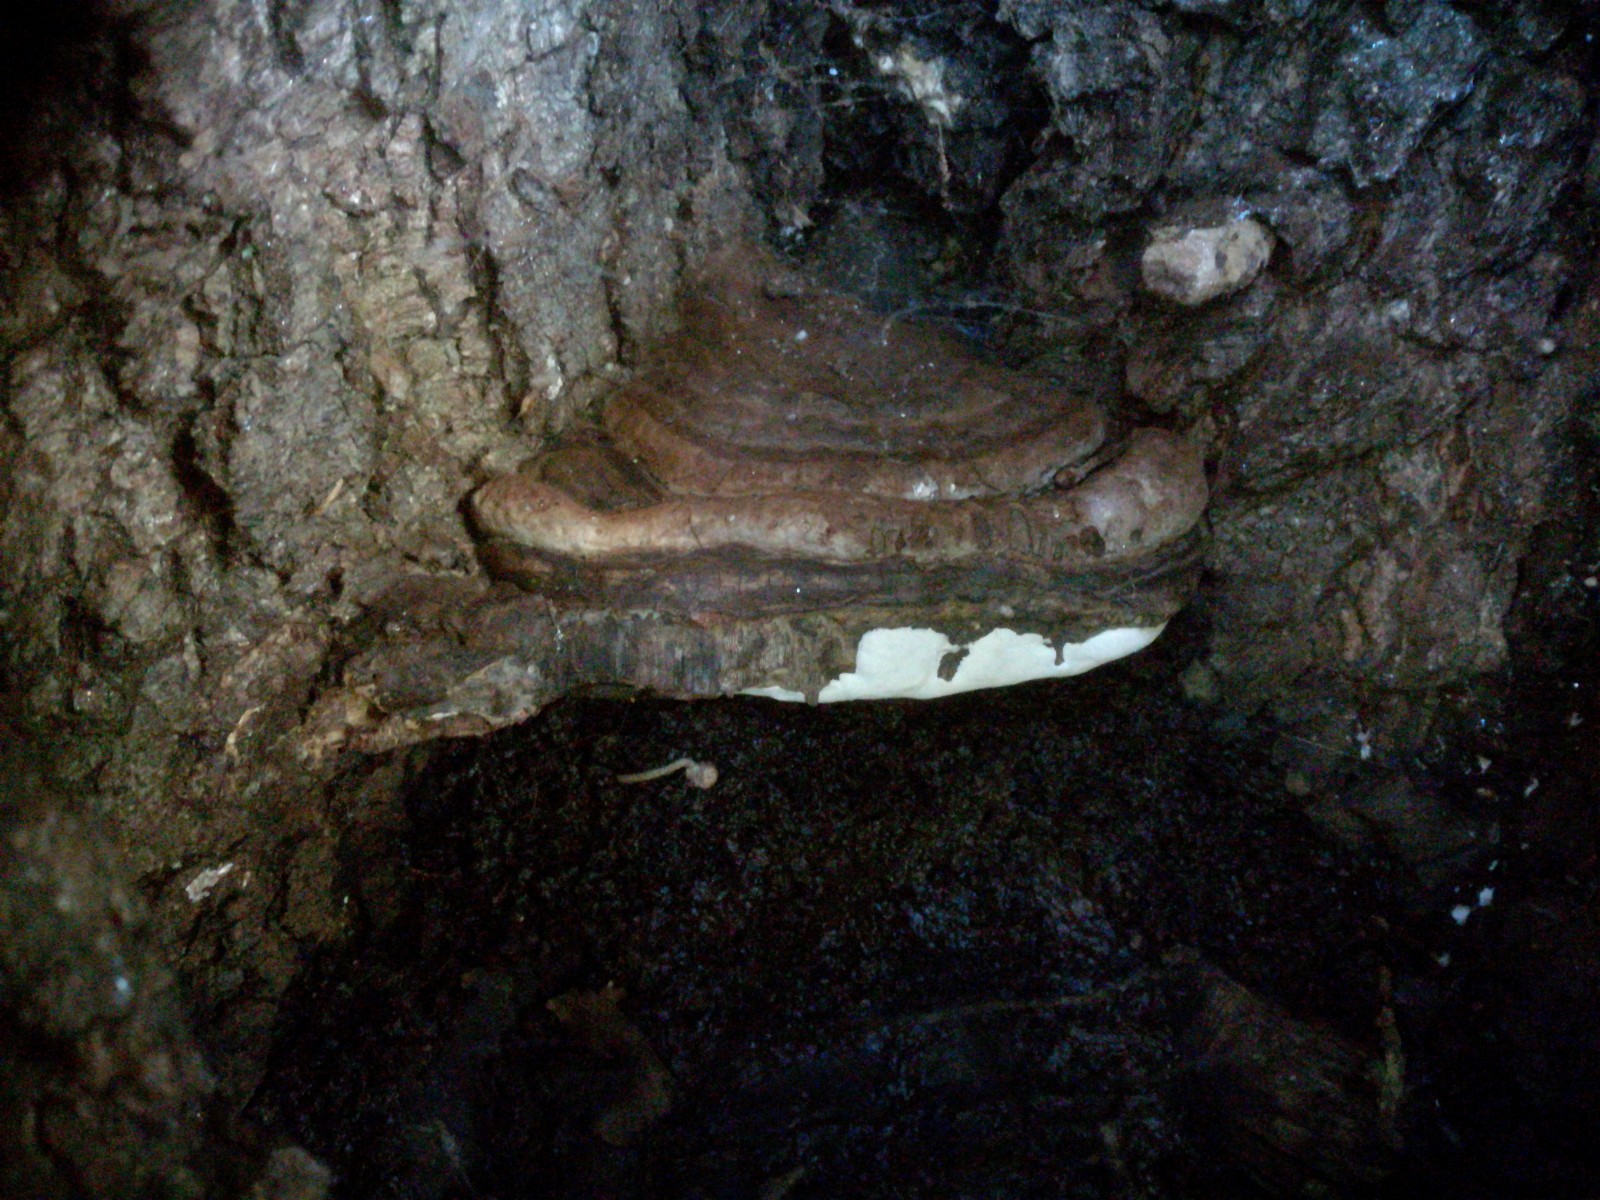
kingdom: Fungi
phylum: Basidiomycota
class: Agaricomycetes
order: Polyporales
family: Polyporaceae
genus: Ganoderma
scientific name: Ganoderma adspersum
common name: grov lakporesvamp
